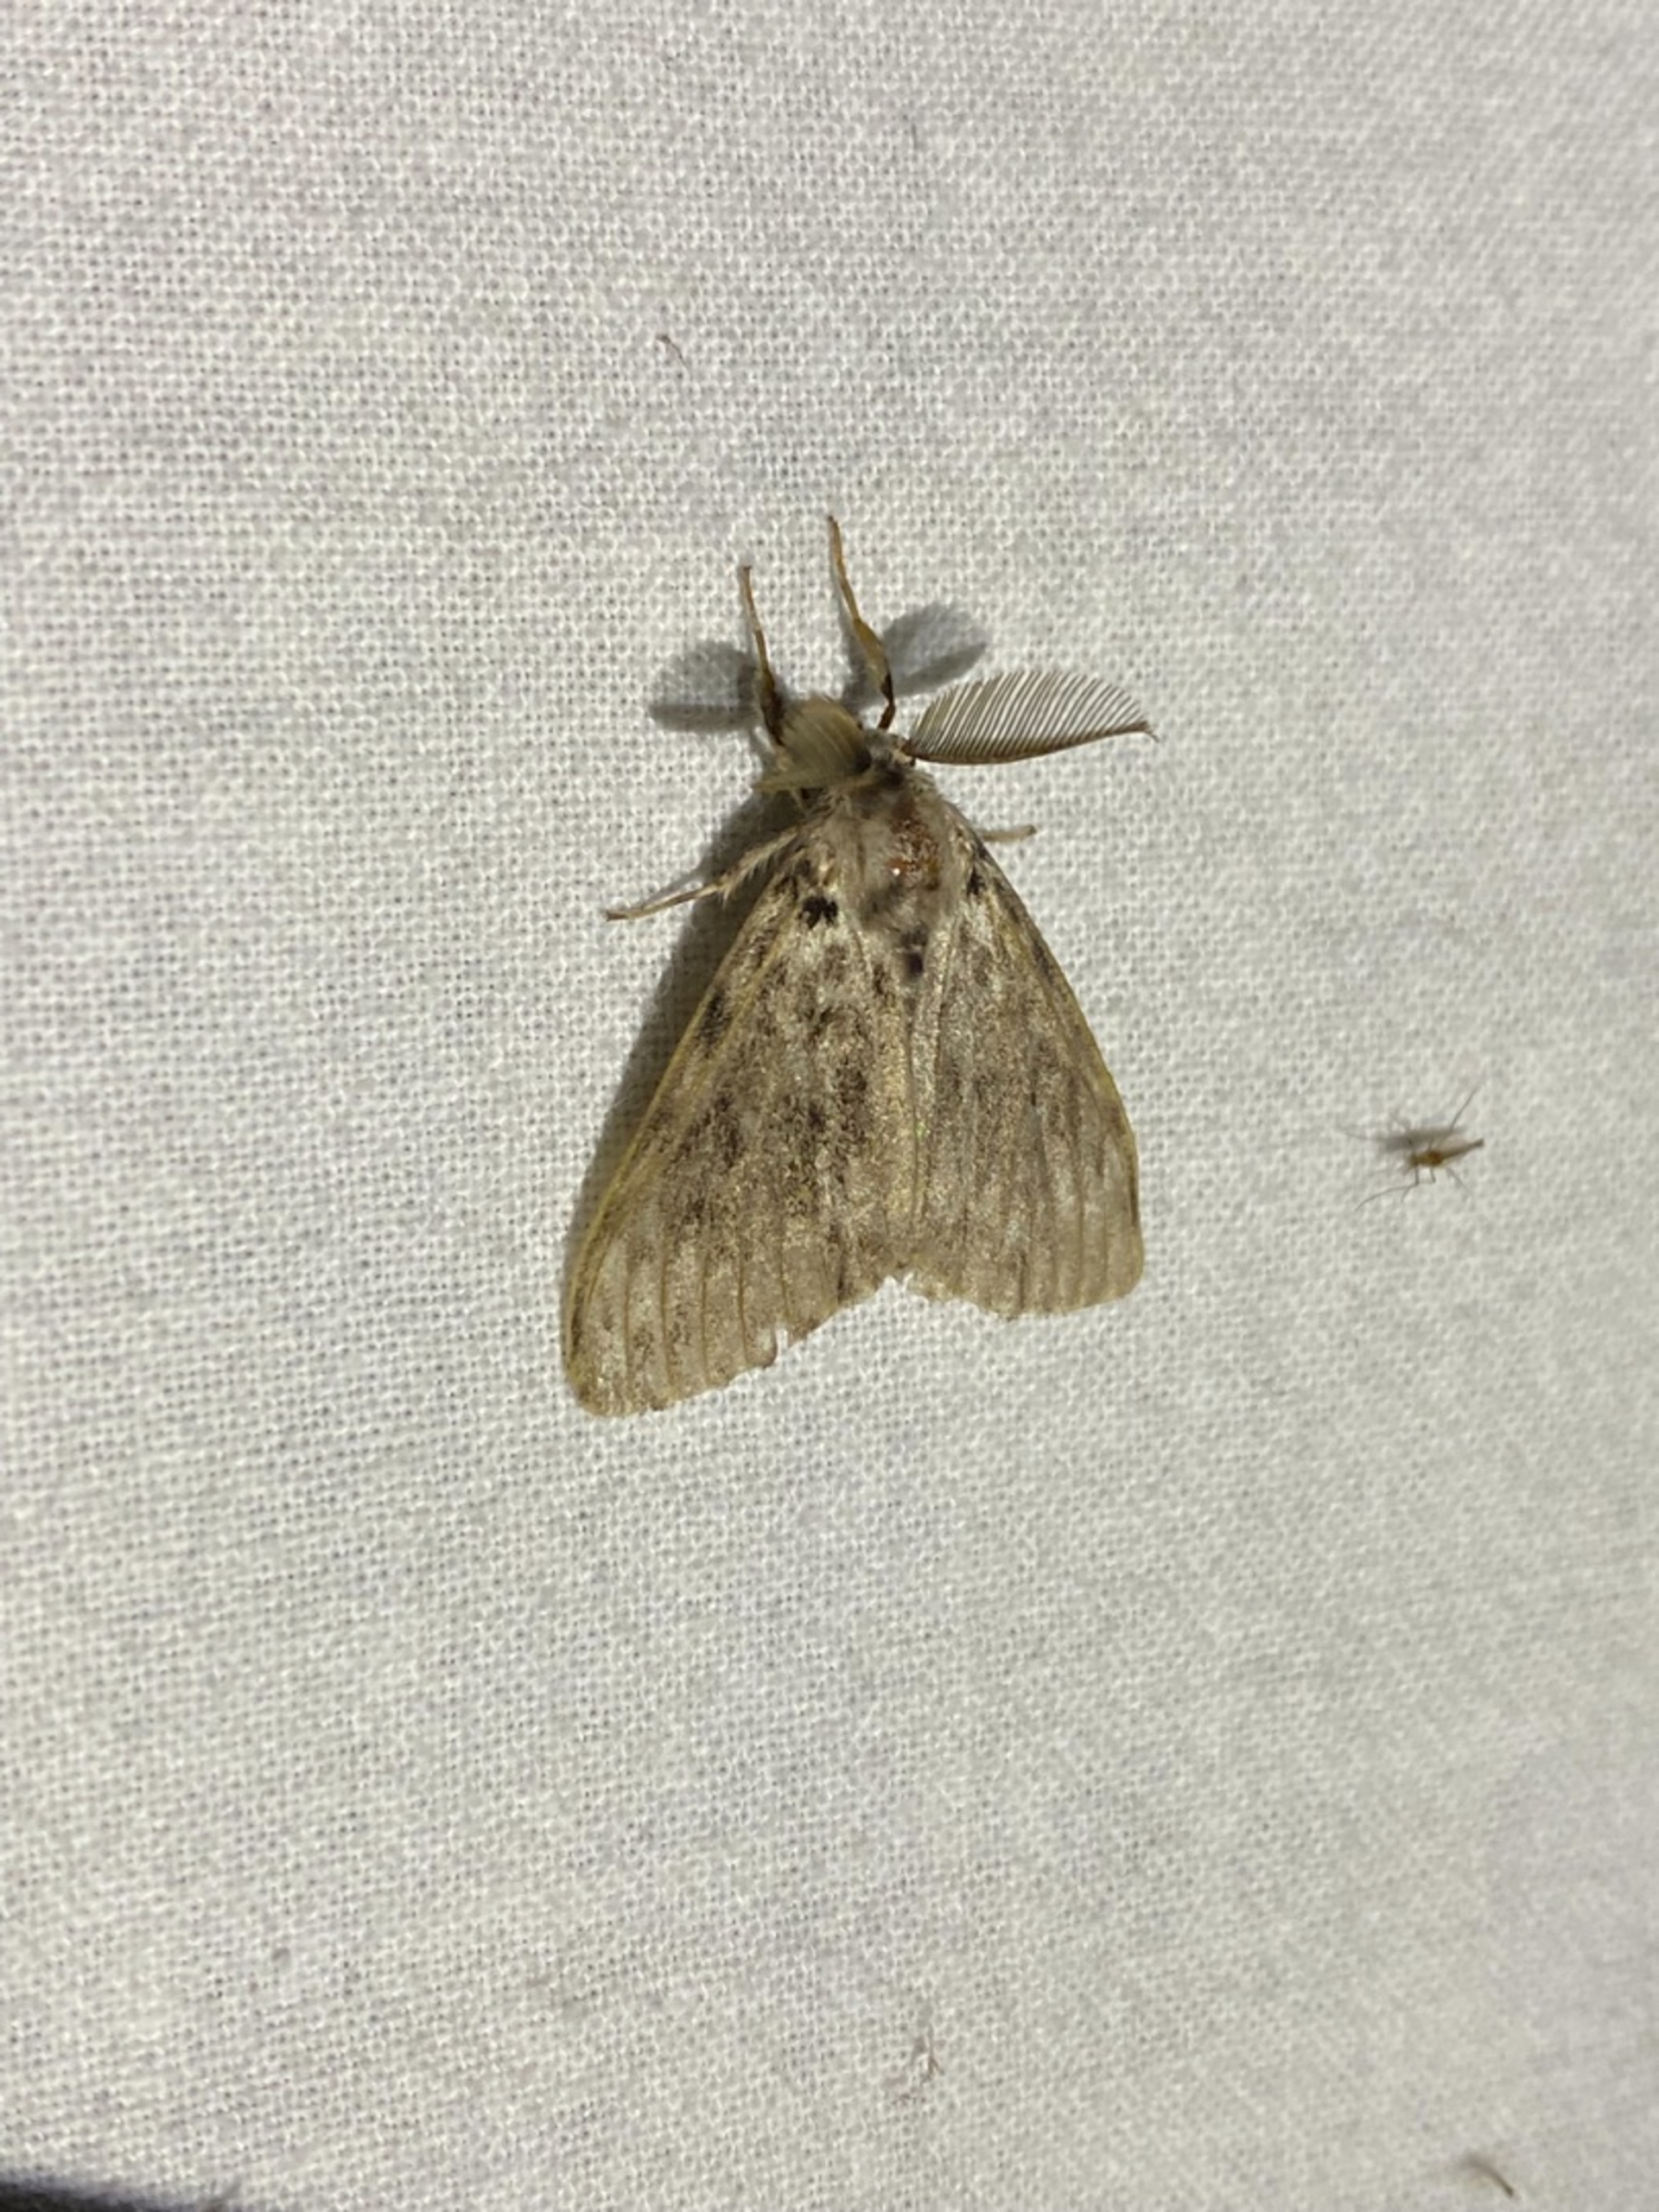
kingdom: Animalia
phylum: Arthropoda
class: Insecta
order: Lepidoptera
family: Erebidae
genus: Lymantria
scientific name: Lymantria monacha
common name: Nonne
